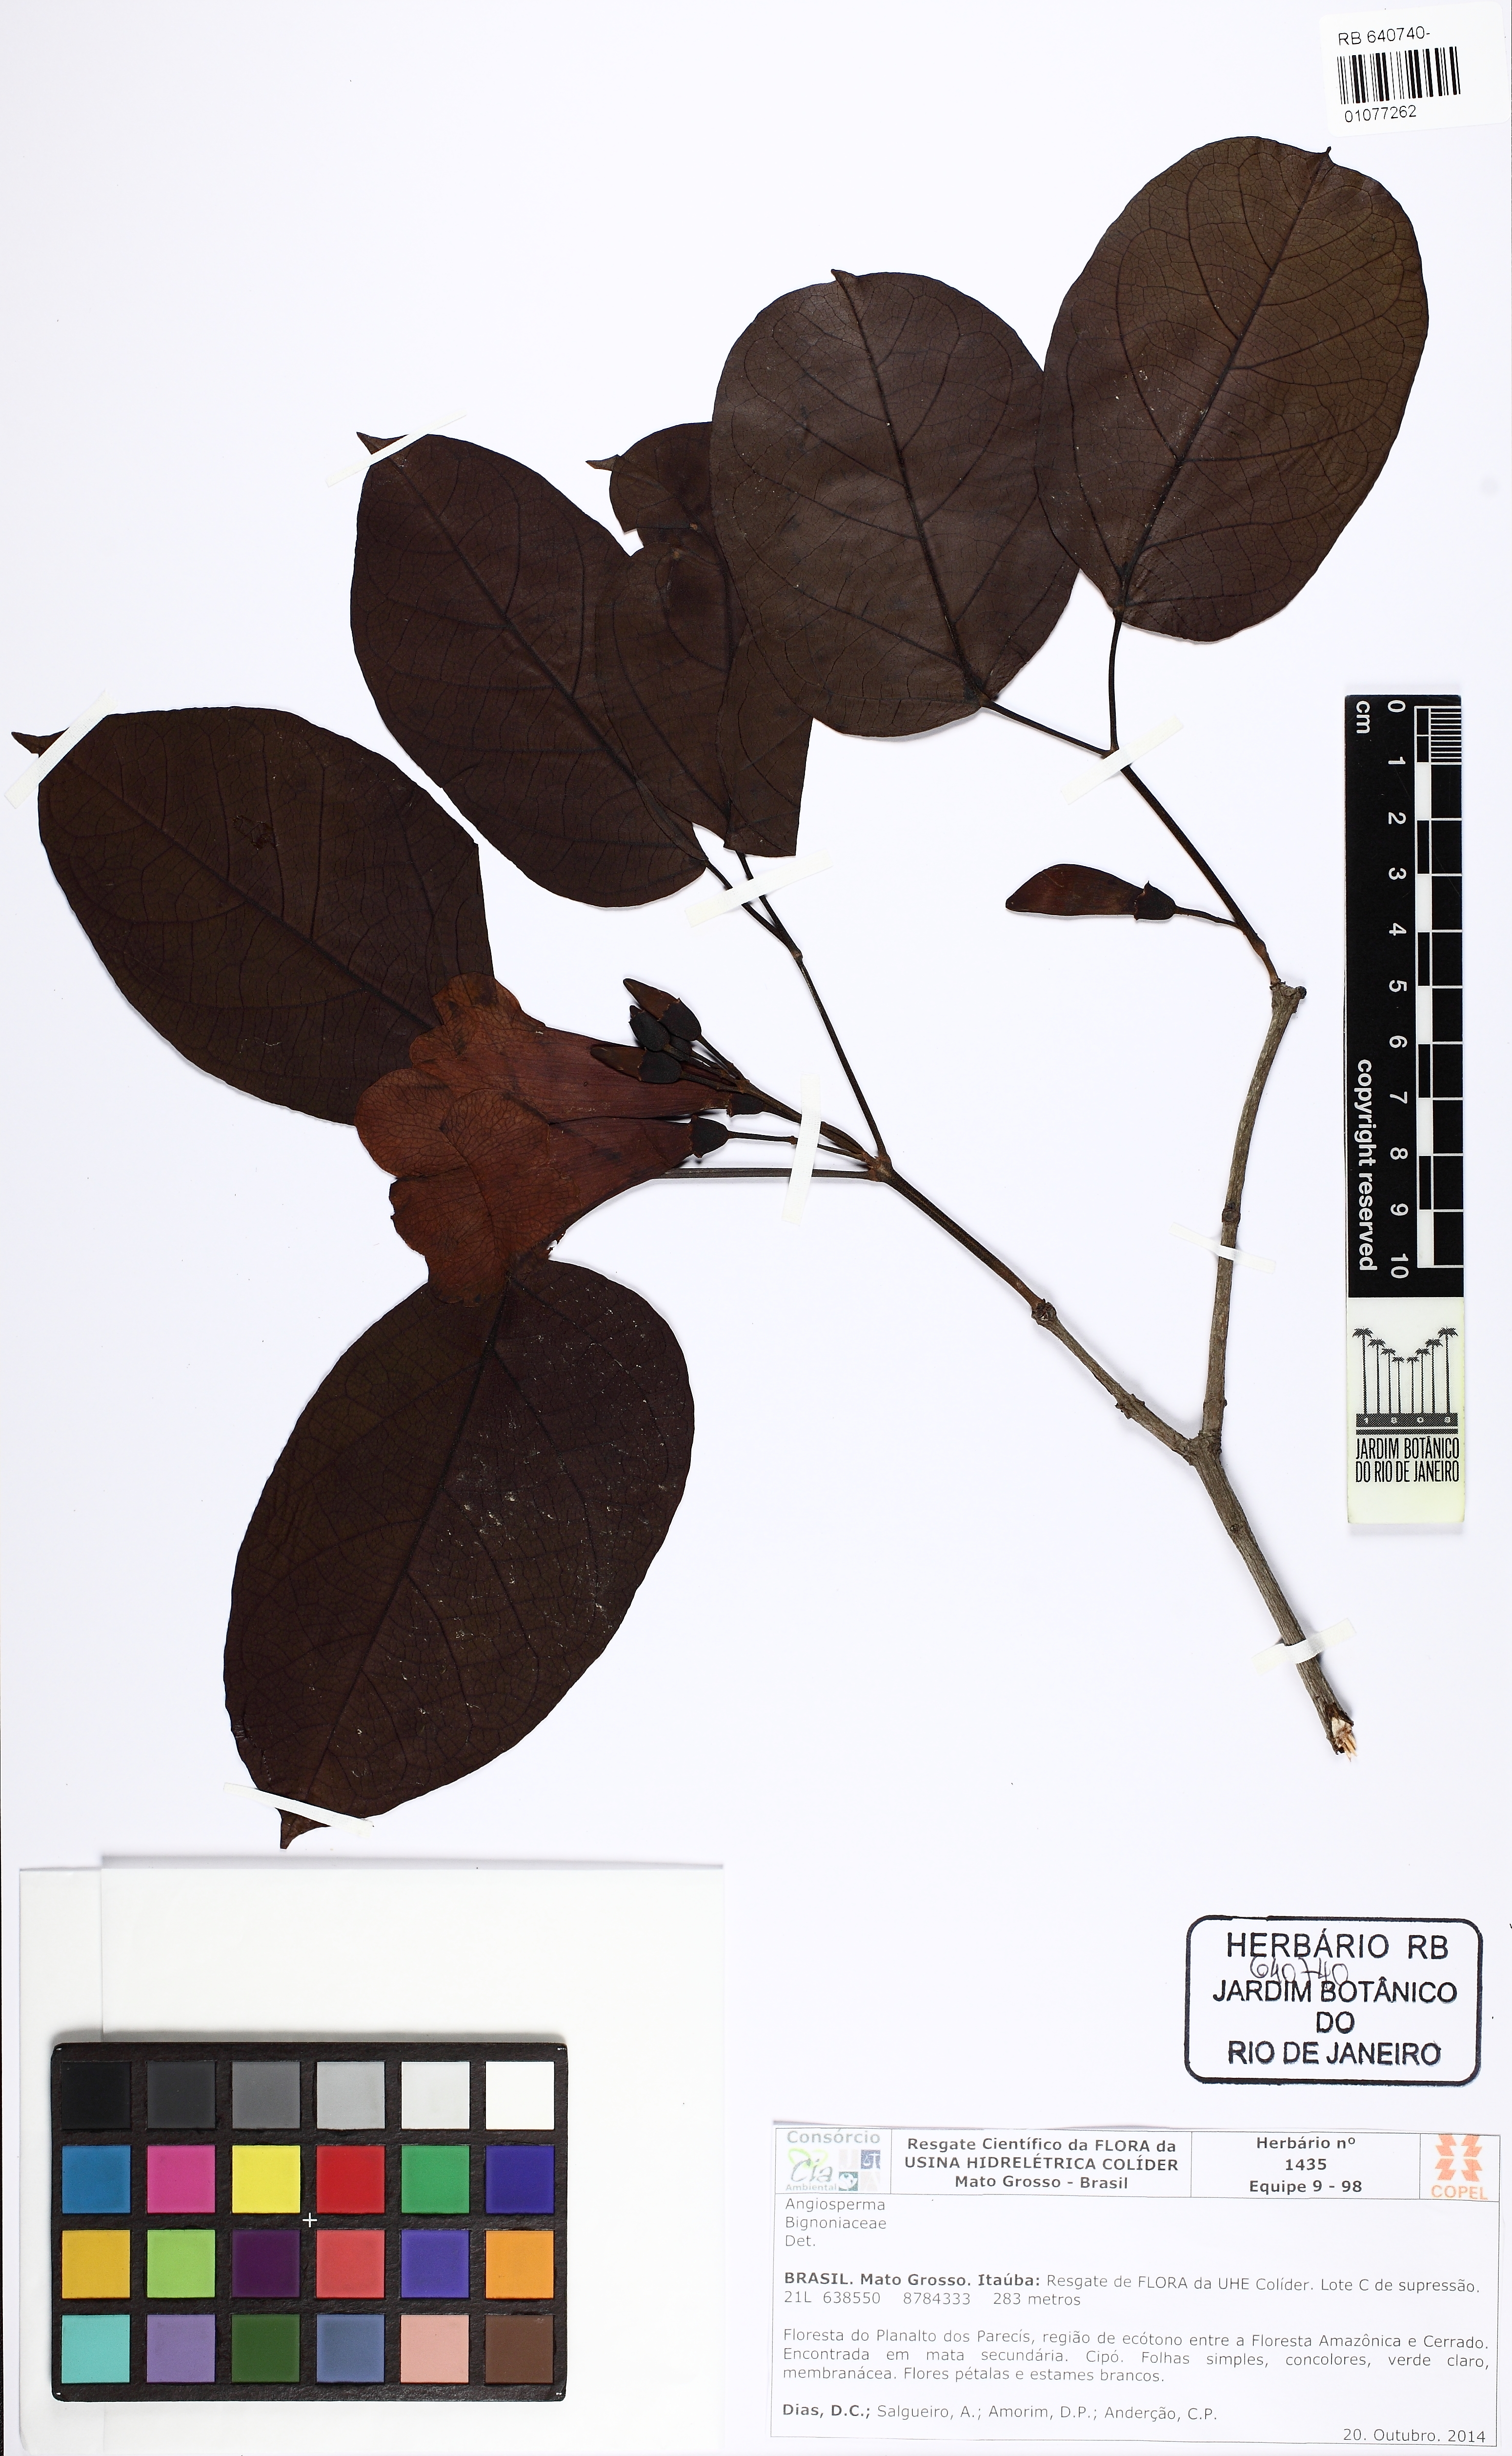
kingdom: Plantae
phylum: Tracheophyta
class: Magnoliopsida
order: Lamiales
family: Bignoniaceae
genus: Bignonia
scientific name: Bignonia
